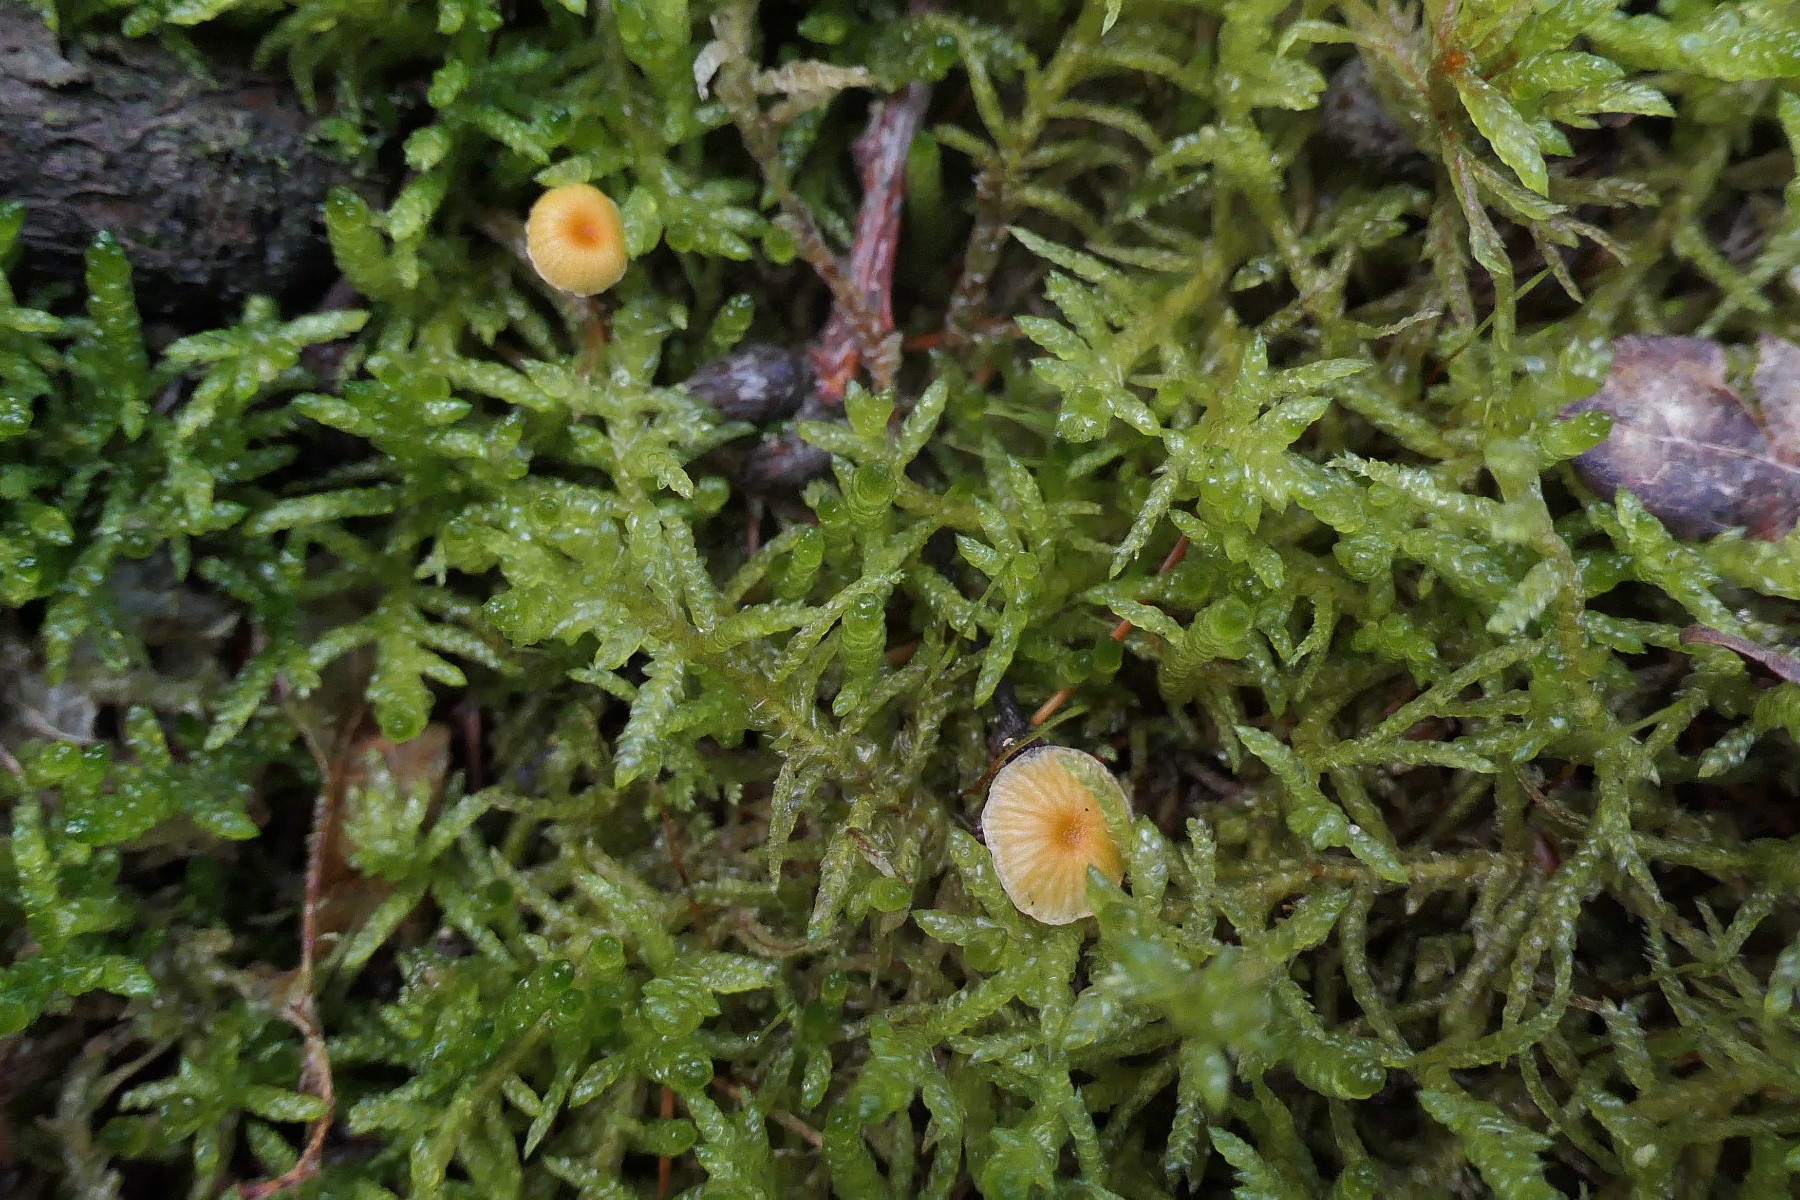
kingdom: Fungi
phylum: Basidiomycota
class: Agaricomycetes
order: Hymenochaetales
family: Rickenellaceae
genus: Rickenella
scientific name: Rickenella fibula
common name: orange mosnavlehat
